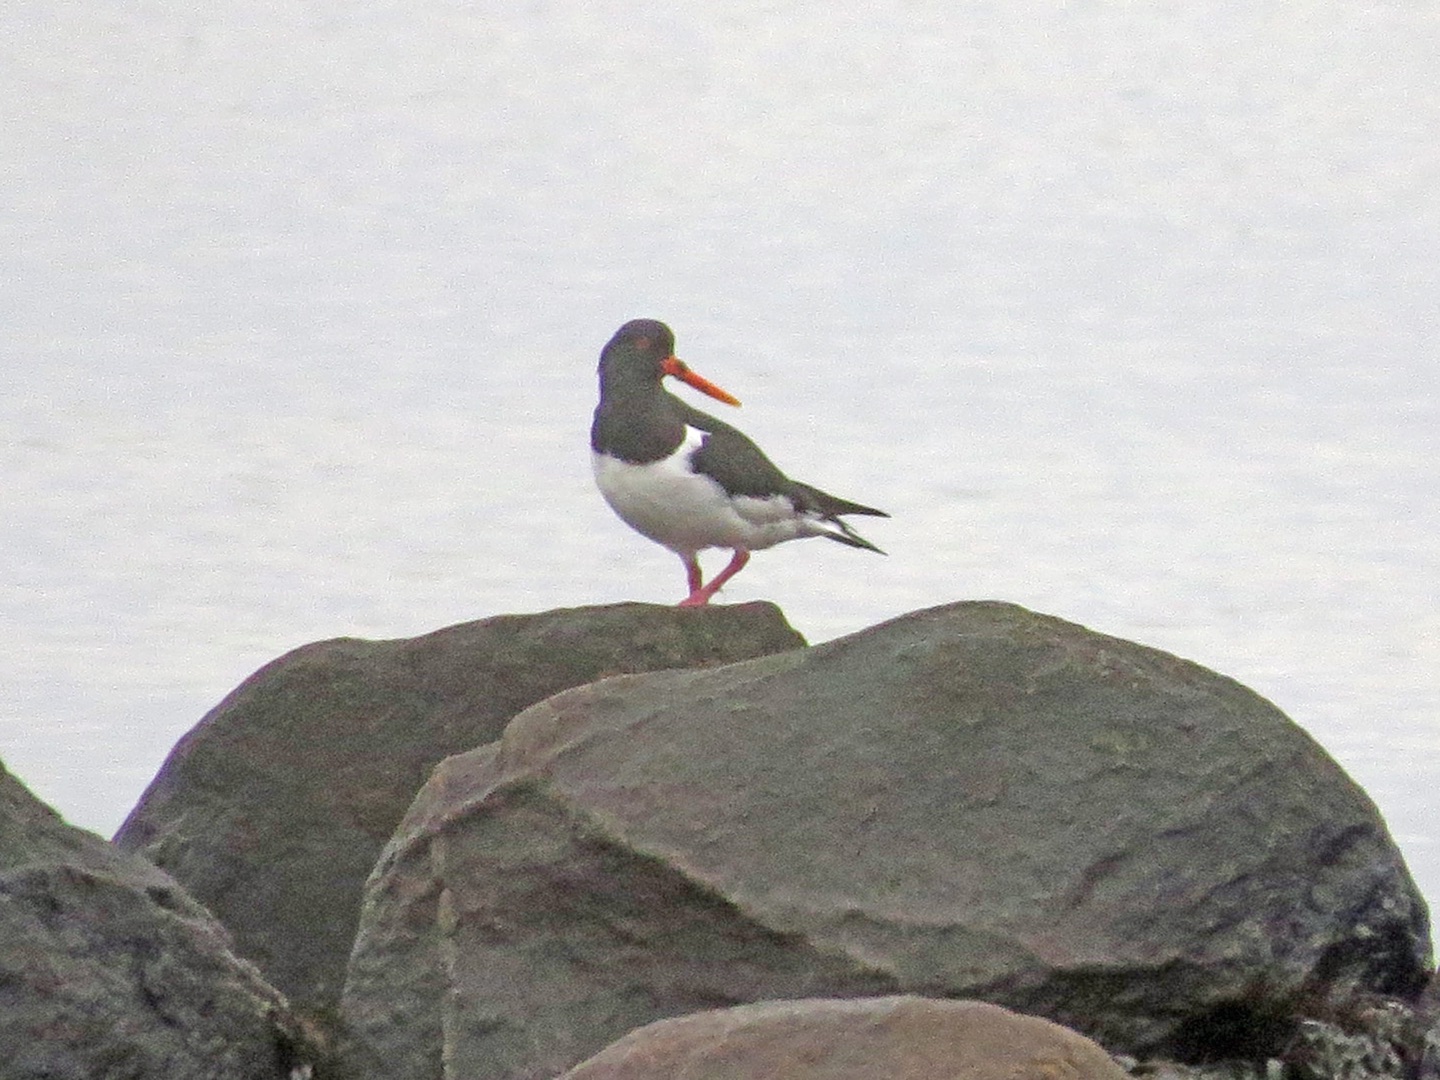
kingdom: Animalia
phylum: Chordata
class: Aves
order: Charadriiformes
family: Haematopodidae
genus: Haematopus
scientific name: Haematopus ostralegus
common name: Strandskade
